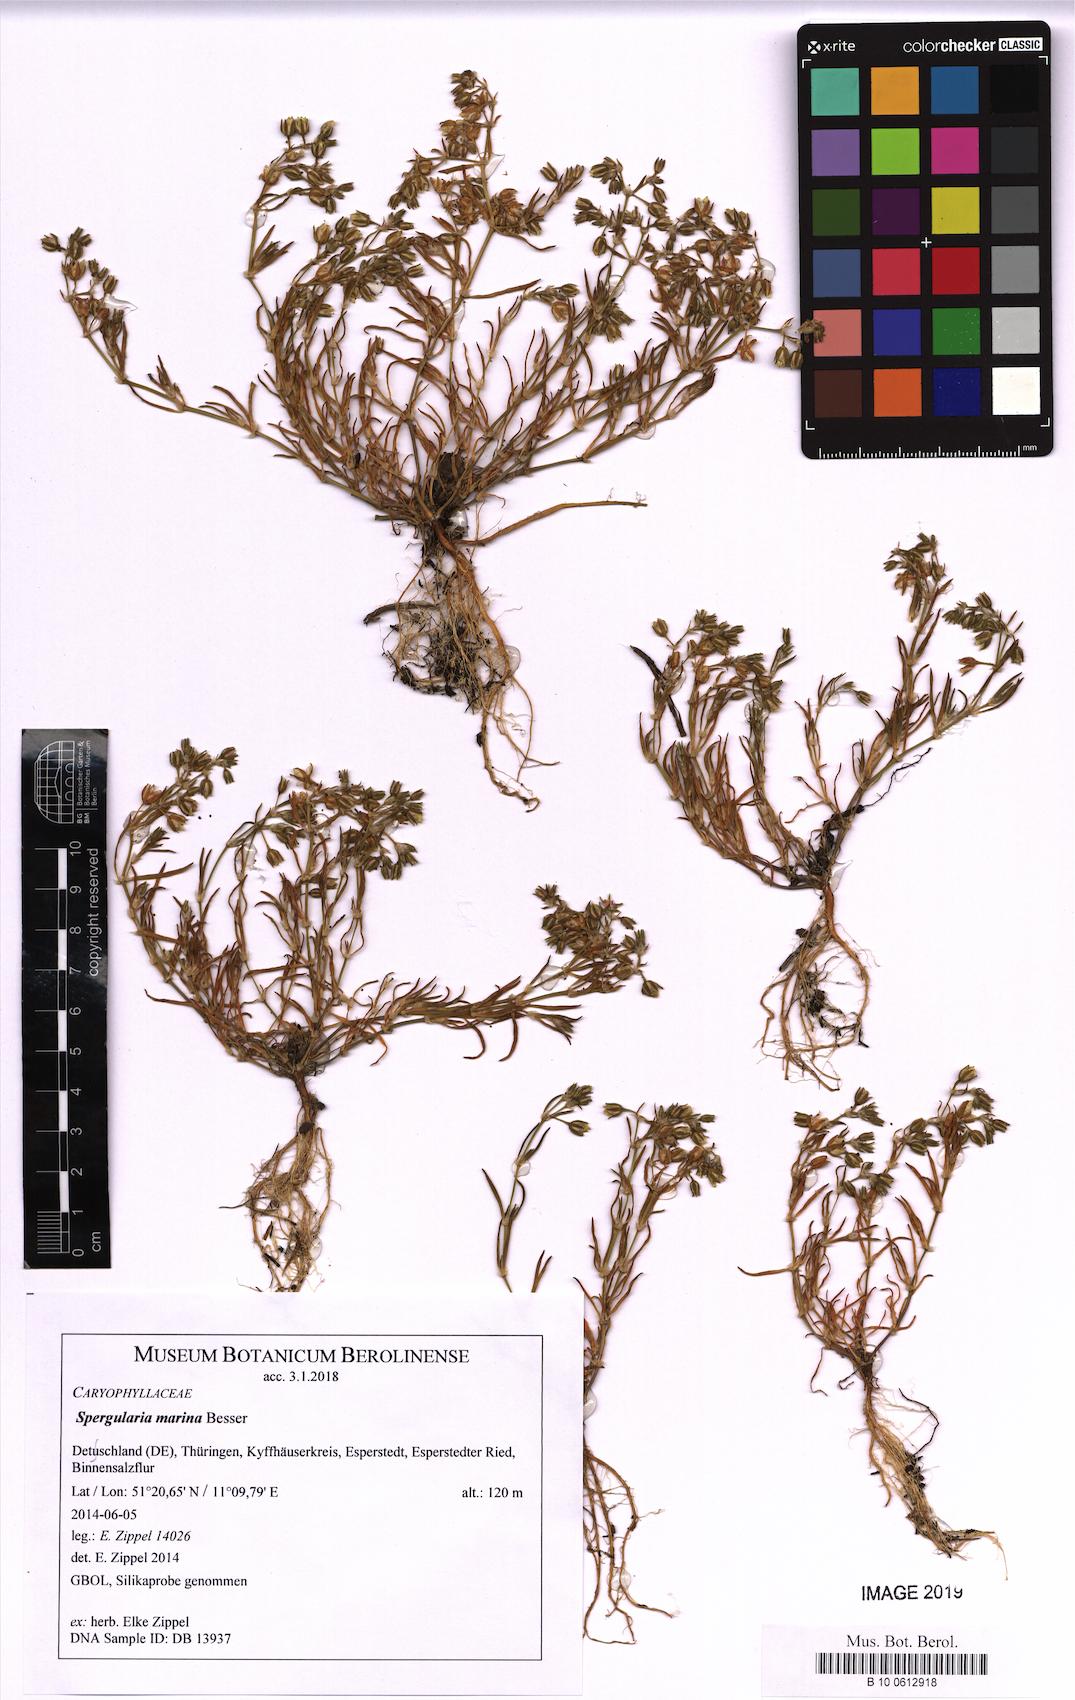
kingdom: Plantae
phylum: Tracheophyta
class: Magnoliopsida
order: Caryophyllales
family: Caryophyllaceae
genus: Spergularia
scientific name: Spergularia marina
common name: Lesser sea-spurrey
